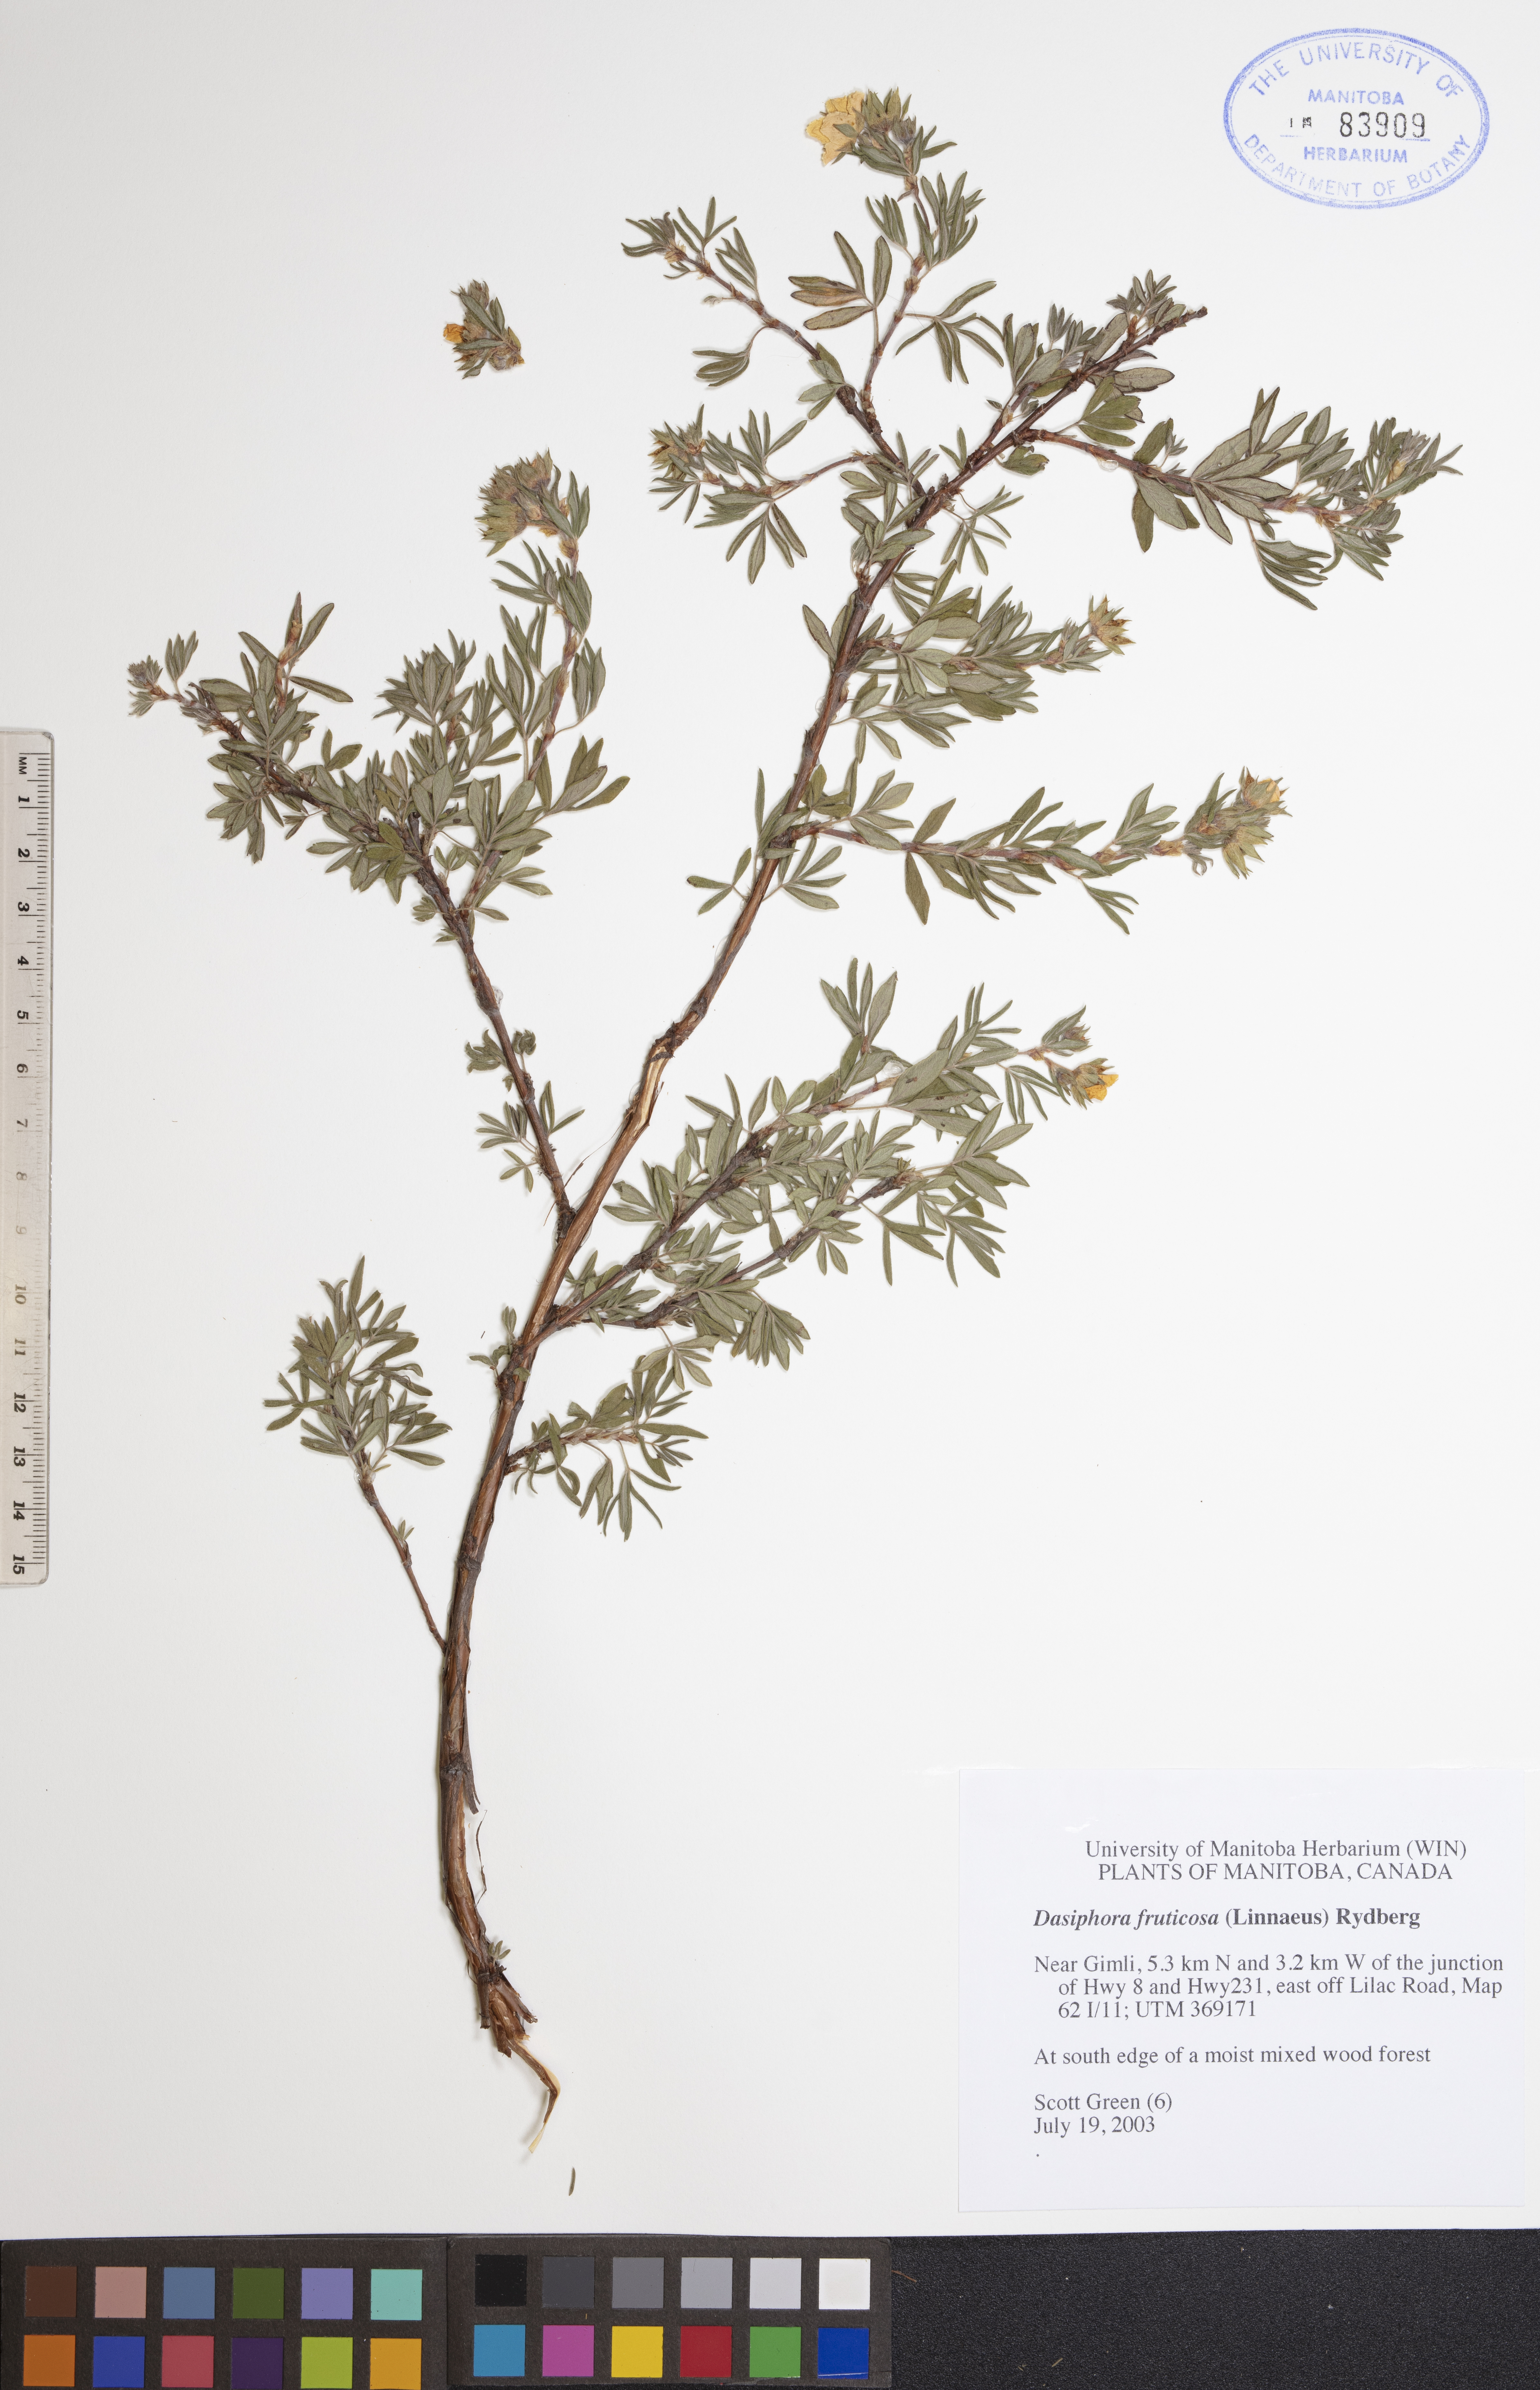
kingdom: Plantae
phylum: Tracheophyta
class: Magnoliopsida
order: Rosales
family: Rosaceae
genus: Dasiphora
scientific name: Dasiphora fruticosa
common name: Shrubby cinquefoil
